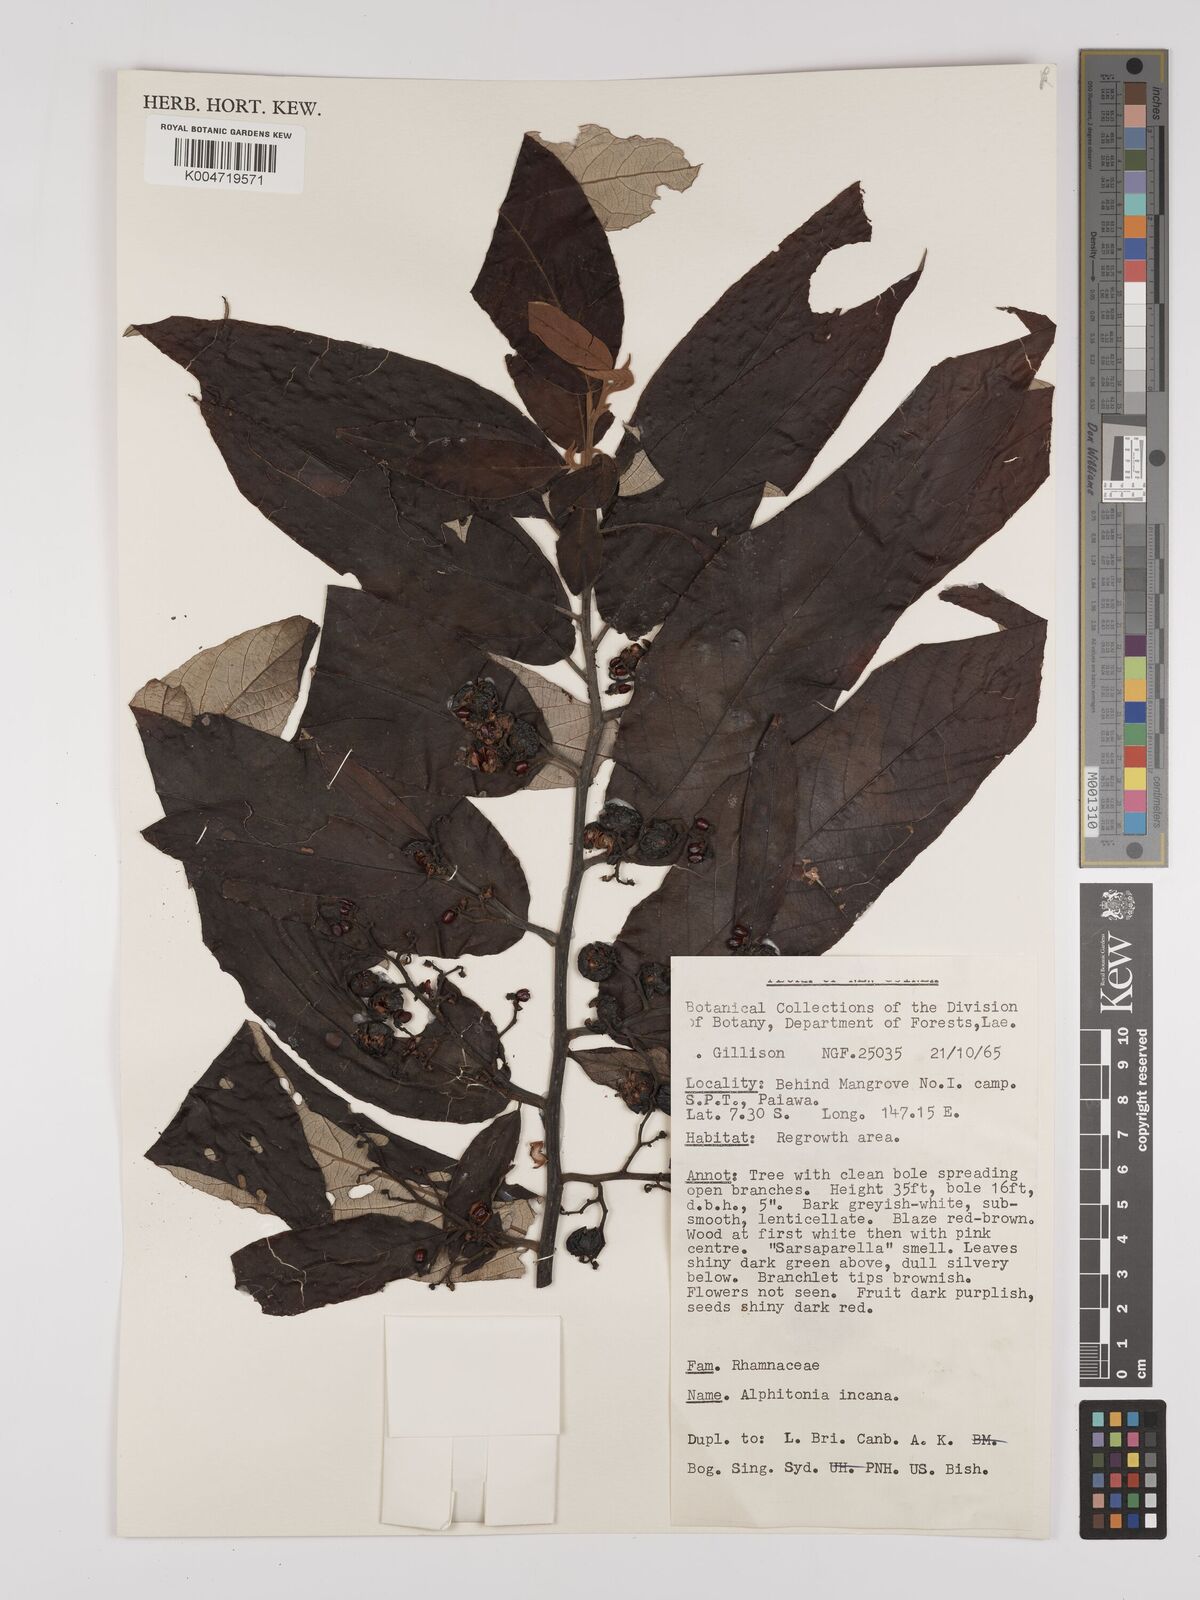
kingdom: Plantae
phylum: Tracheophyta
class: Magnoliopsida
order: Rosales
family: Rhamnaceae
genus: Alphitonia
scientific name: Alphitonia incana
